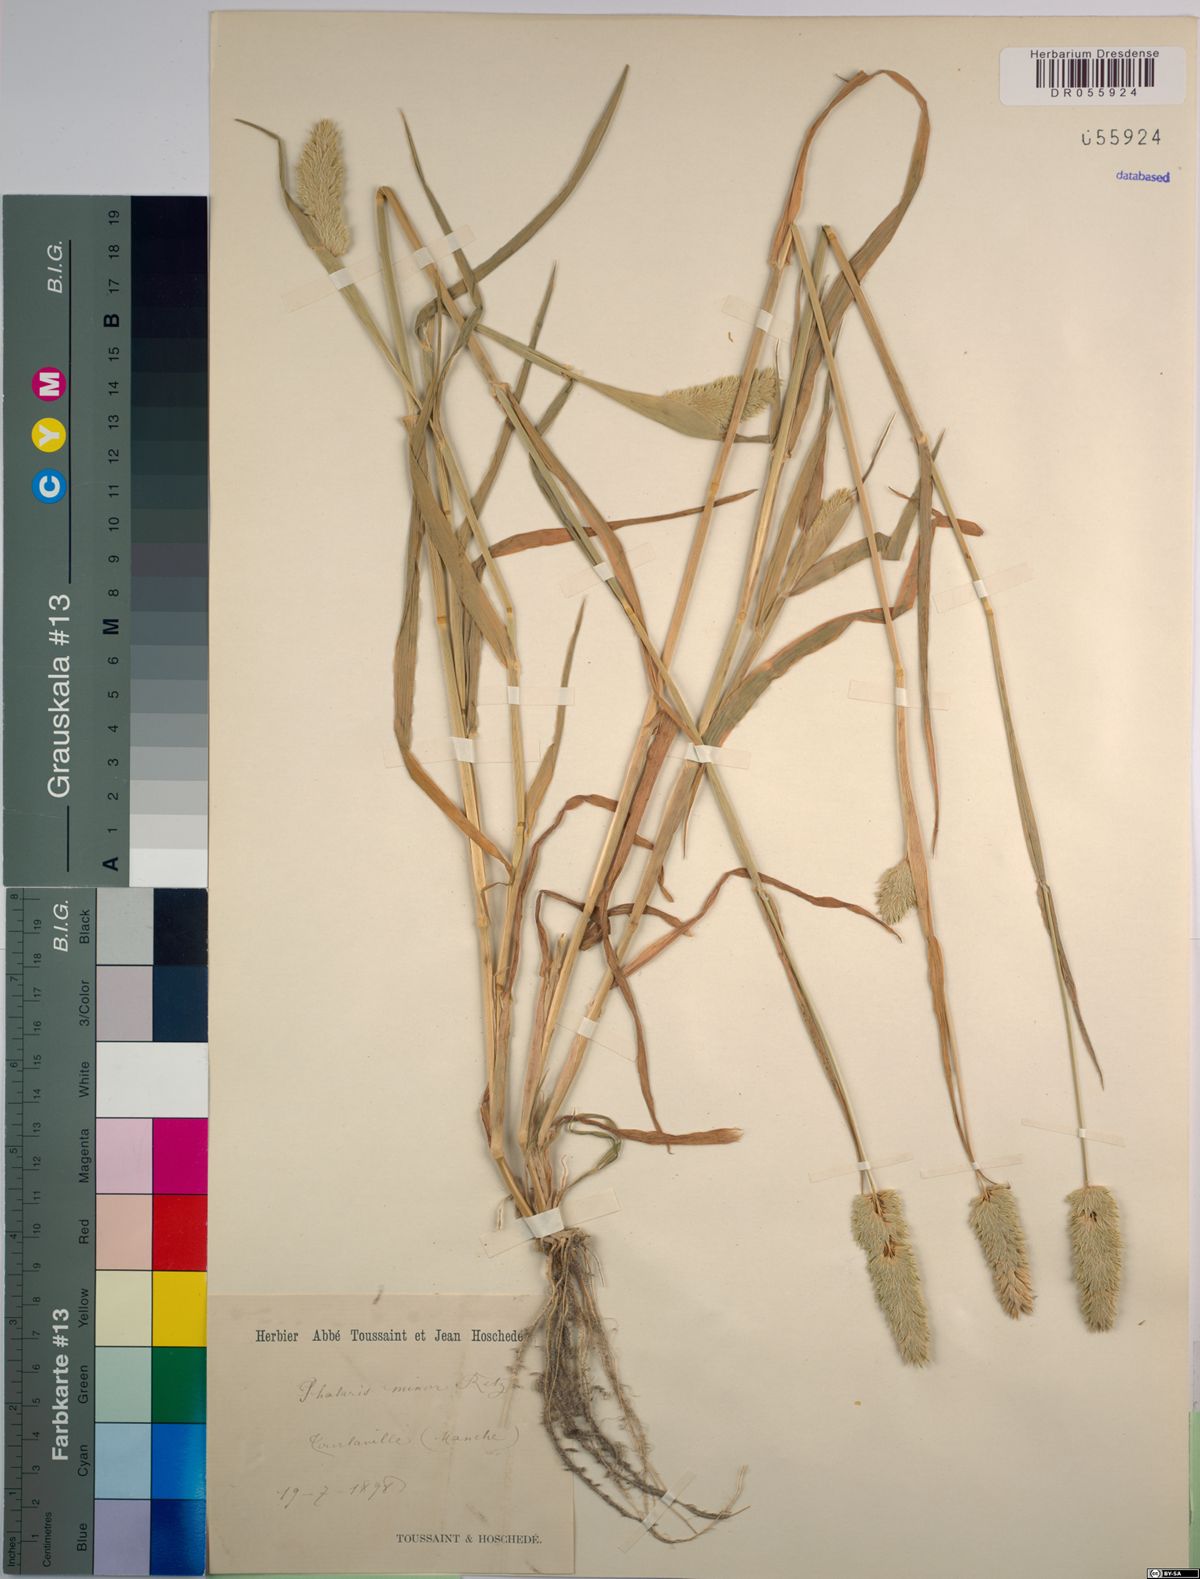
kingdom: Plantae
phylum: Tracheophyta
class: Liliopsida
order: Poales
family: Poaceae
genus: Phalaris
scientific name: Phalaris minor
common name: Littleseed canarygrass
